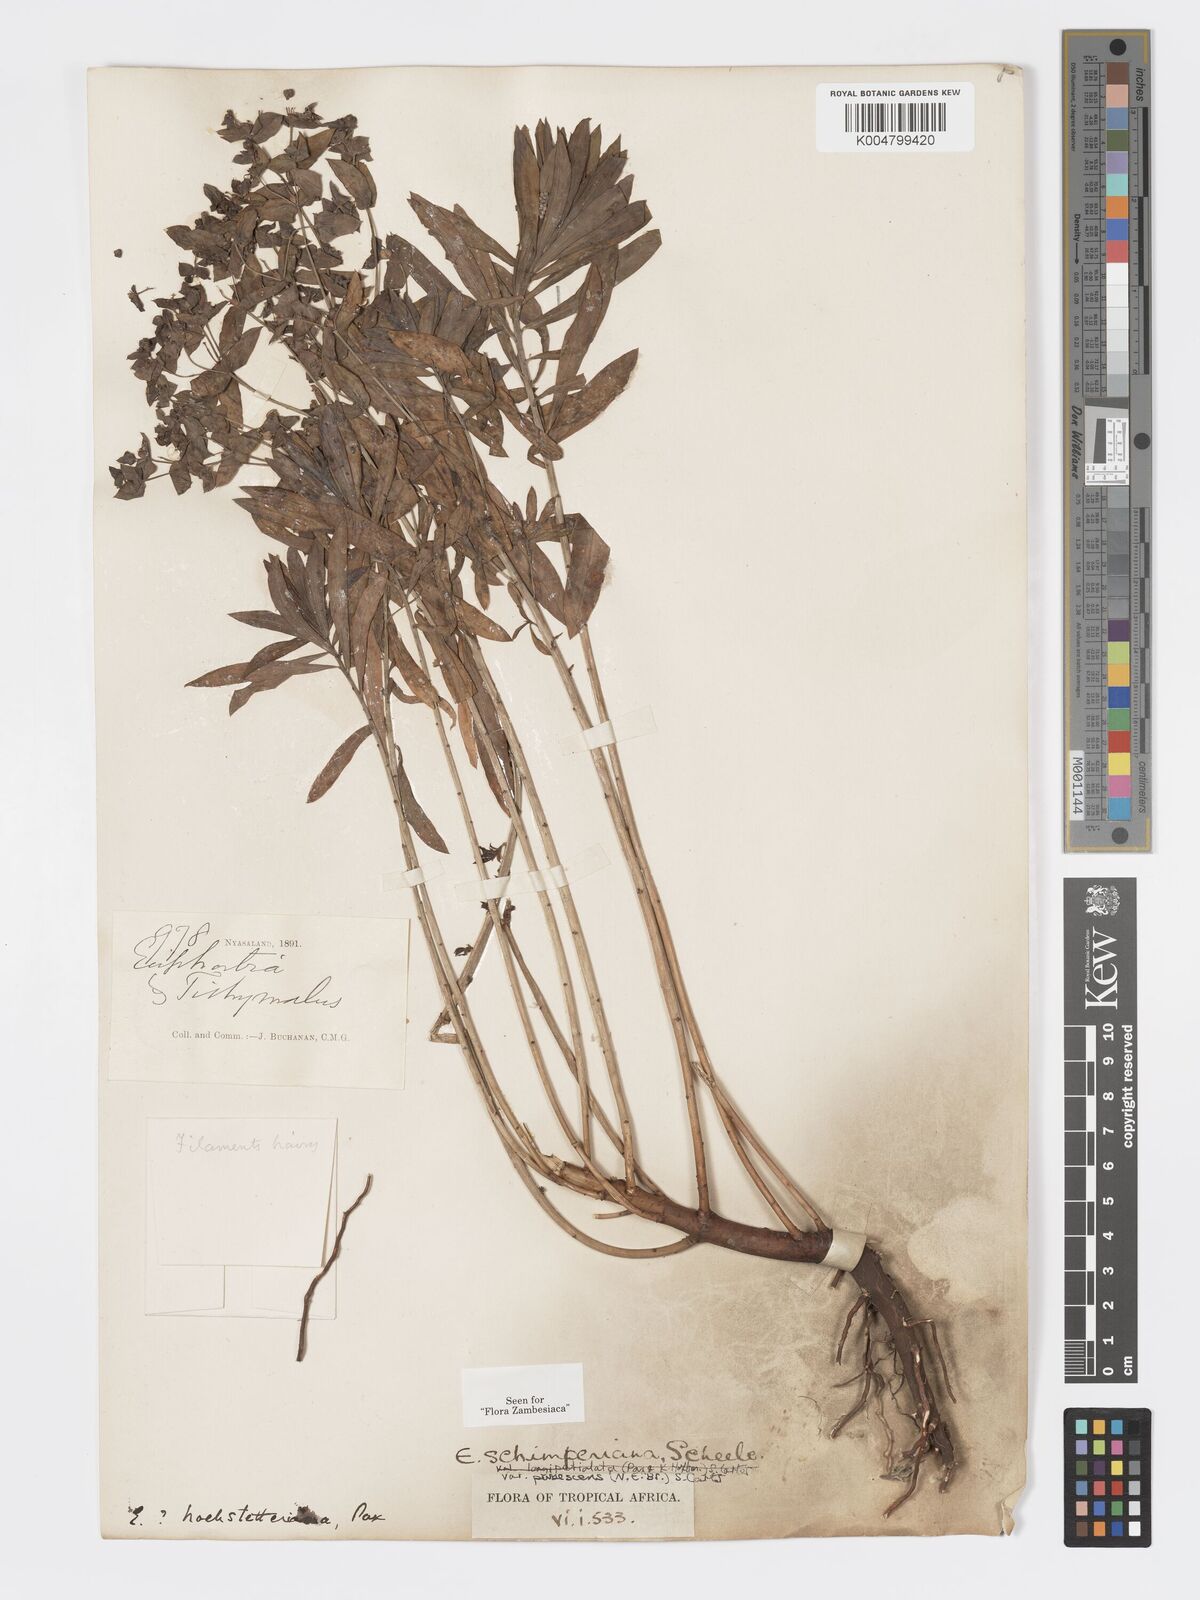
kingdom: Plantae
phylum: Tracheophyta
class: Magnoliopsida
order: Malpighiales
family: Euphorbiaceae
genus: Euphorbia
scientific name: Euphorbia schimperiana
